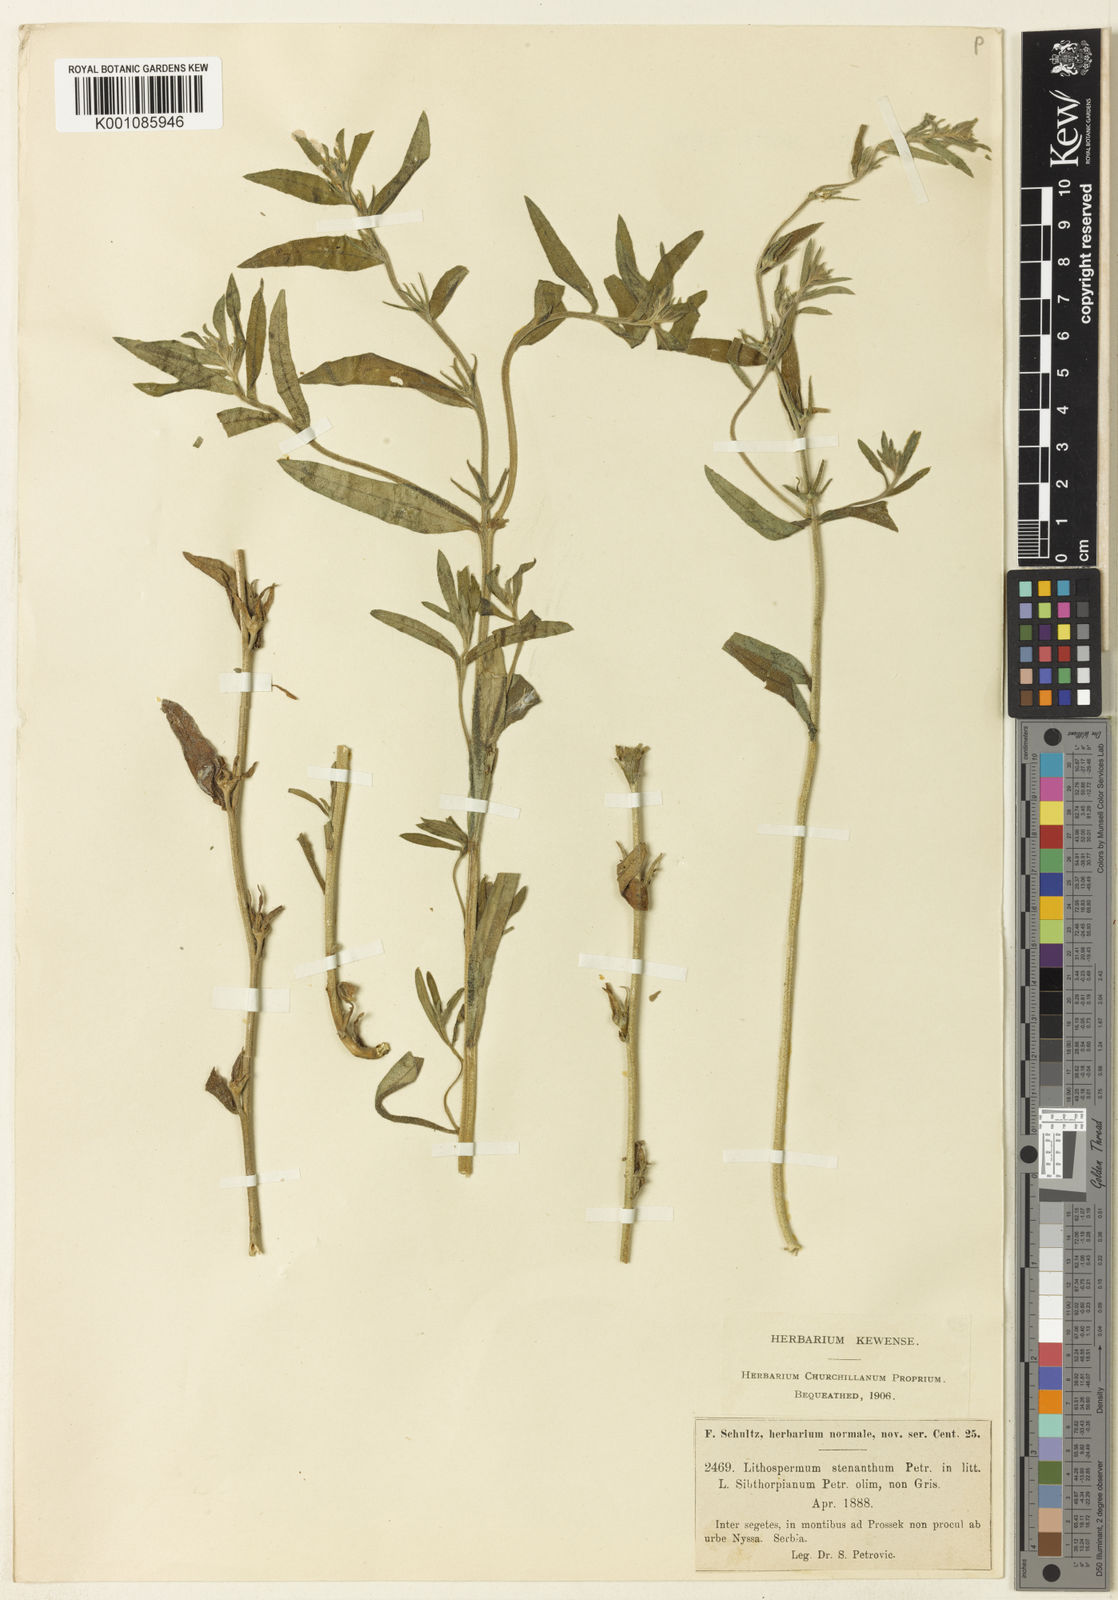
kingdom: Plantae
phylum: Tracheophyta
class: Magnoliopsida
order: Boraginales
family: Boraginaceae
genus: Buglossoides
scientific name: Buglossoides
